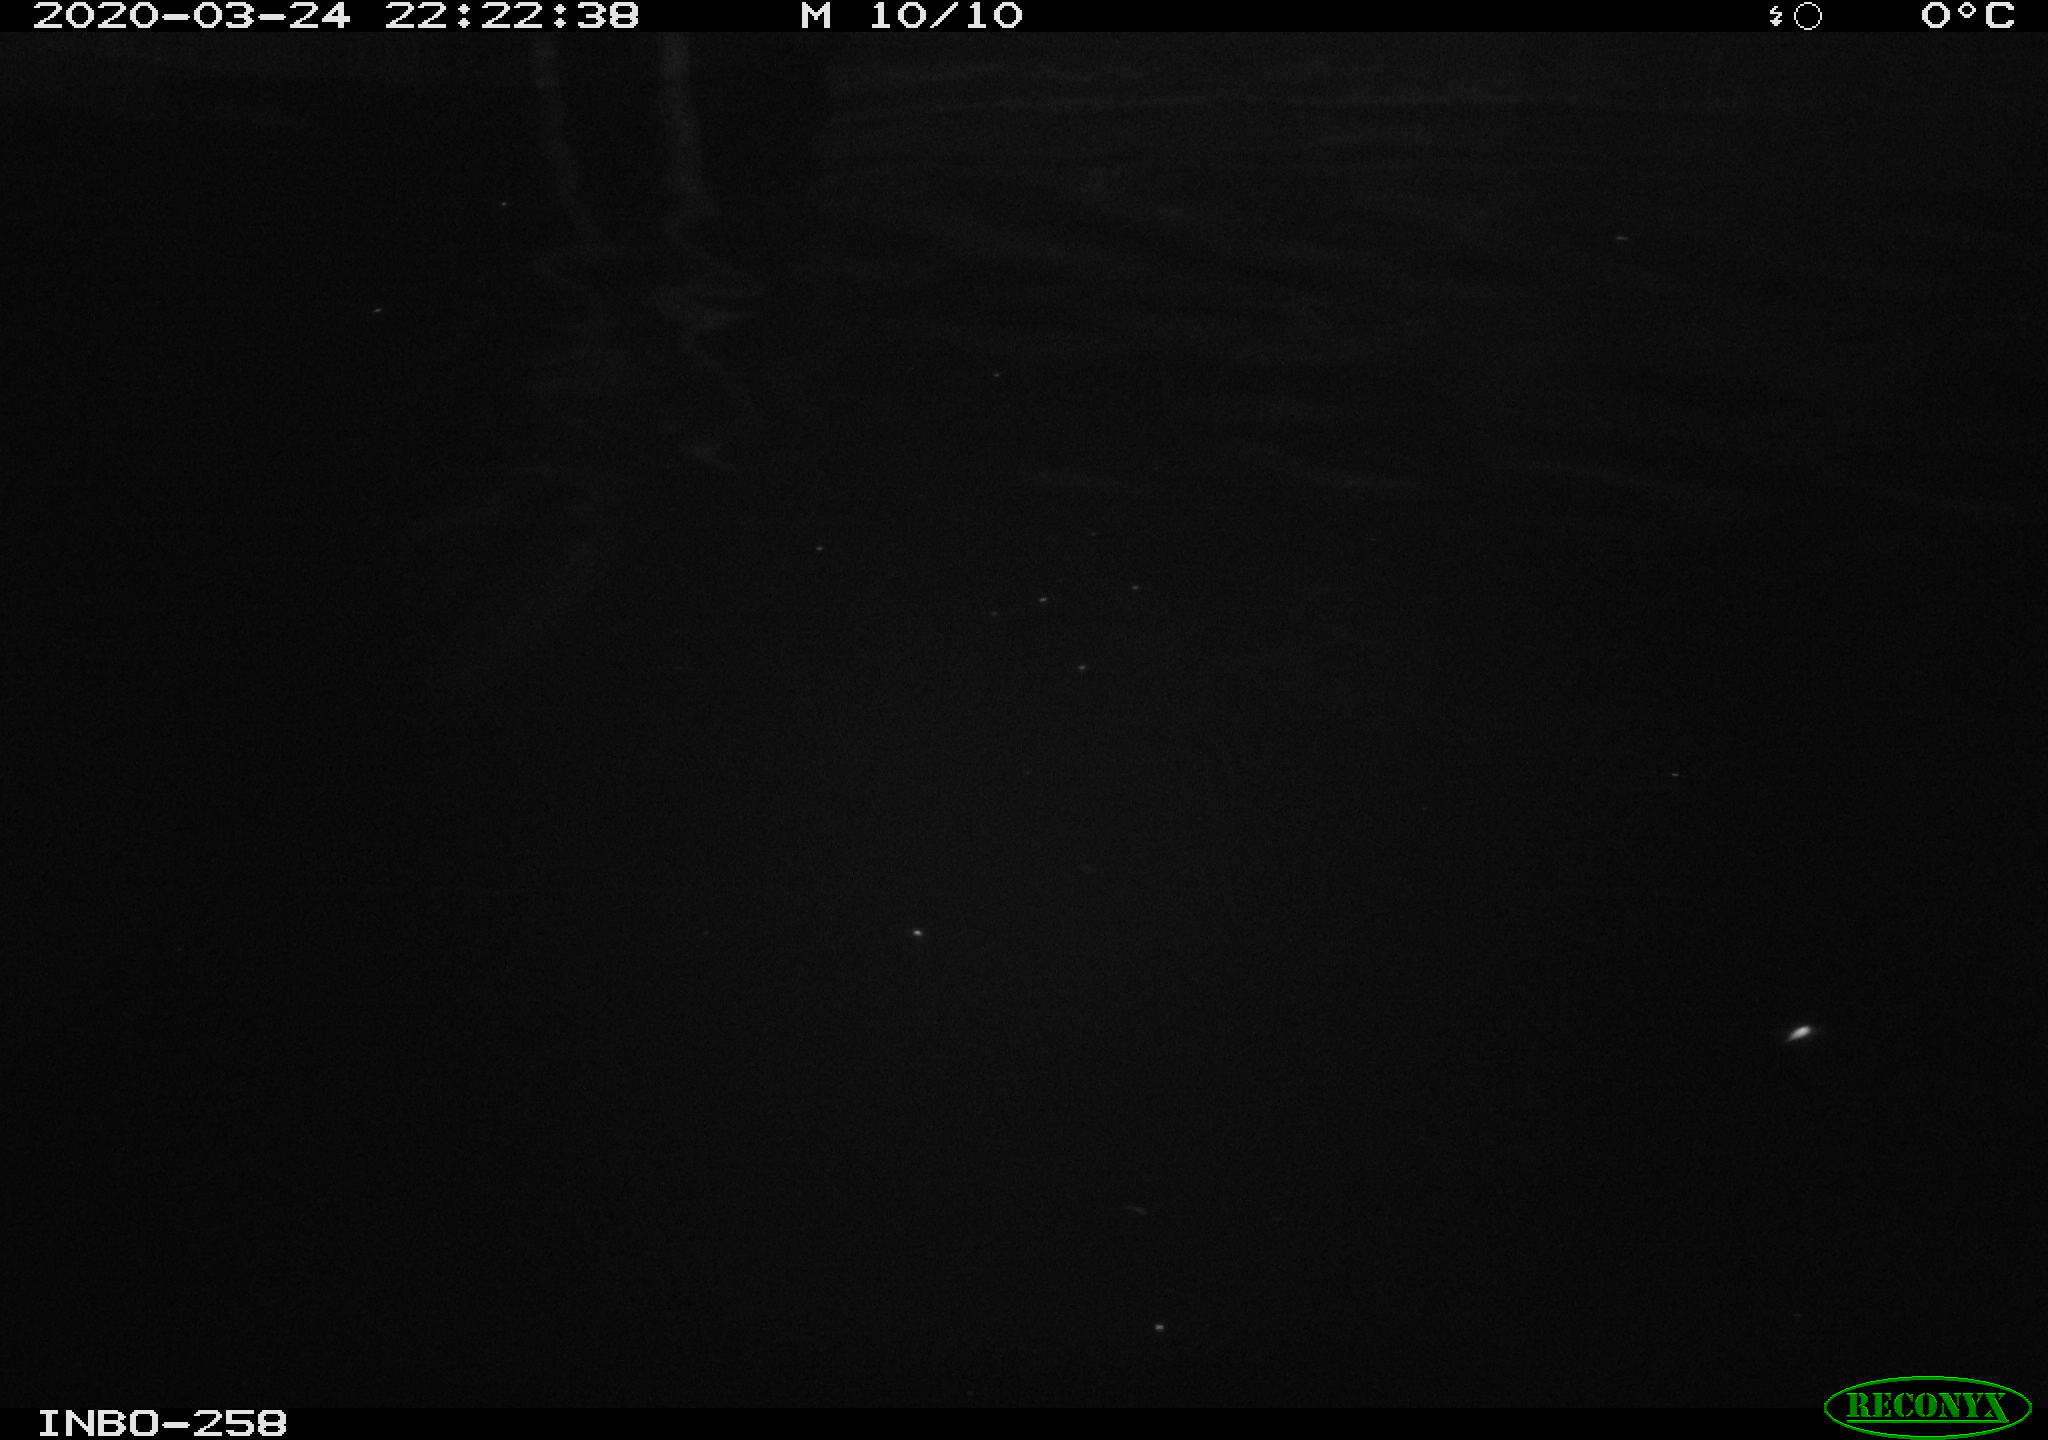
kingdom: Animalia
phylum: Chordata
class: Aves
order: Anseriformes
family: Anatidae
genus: Anas
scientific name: Anas platyrhynchos
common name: Mallard
